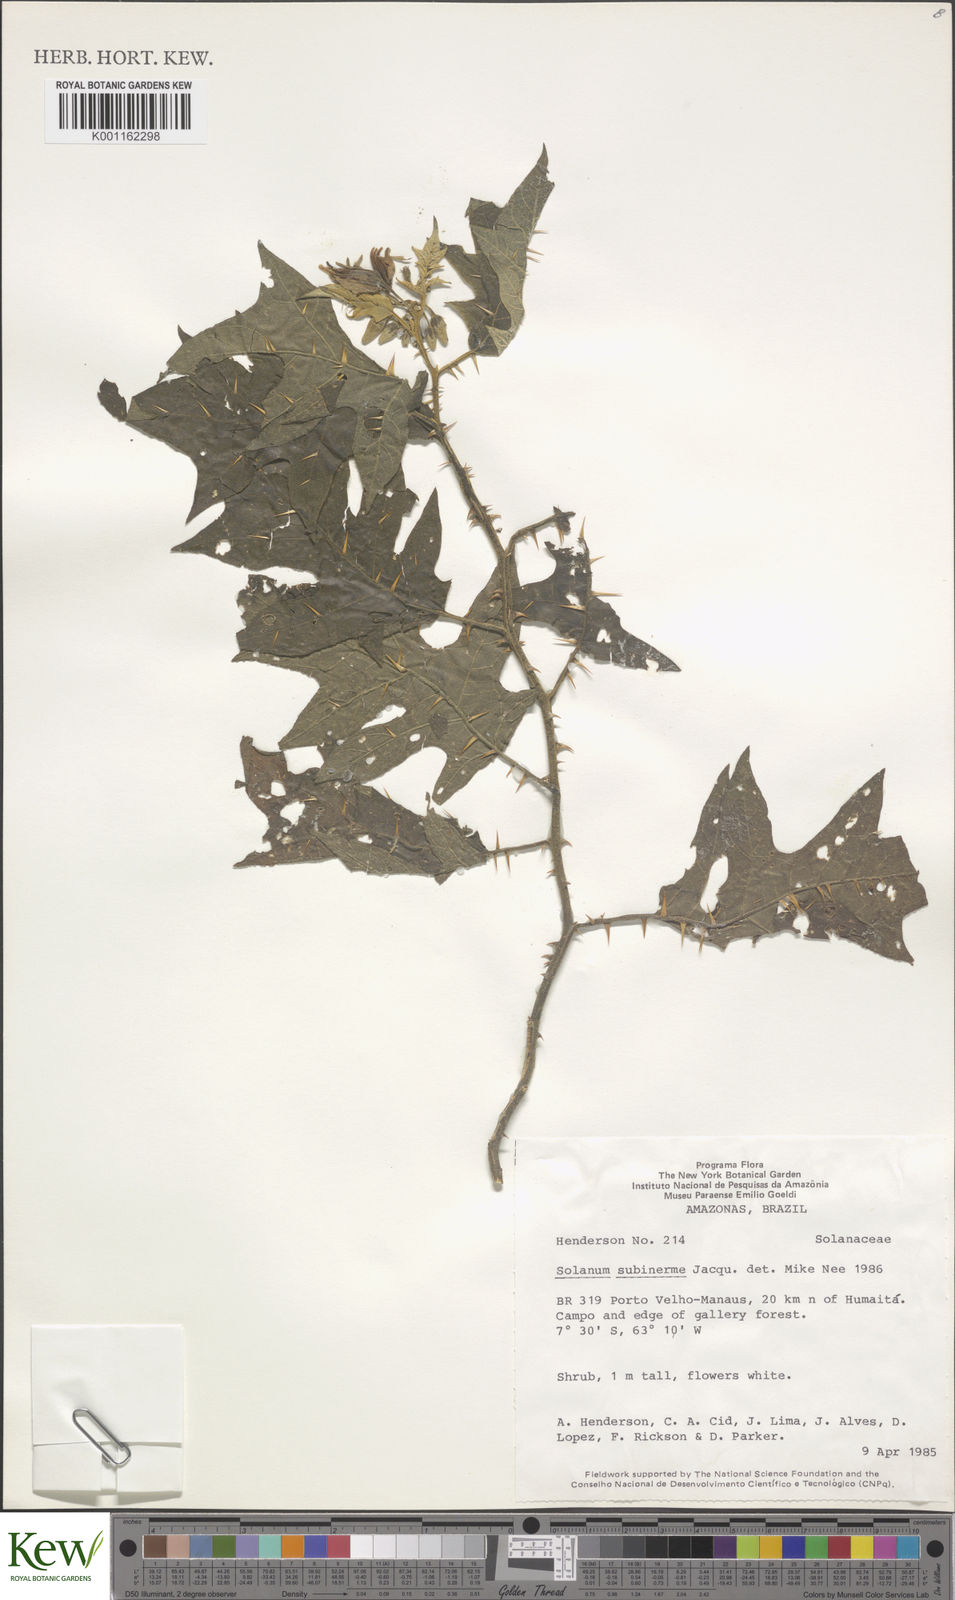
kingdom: Plantae
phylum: Tracheophyta
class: Magnoliopsida
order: Solanales
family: Solanaceae
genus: Solanum
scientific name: Solanum subinerme
